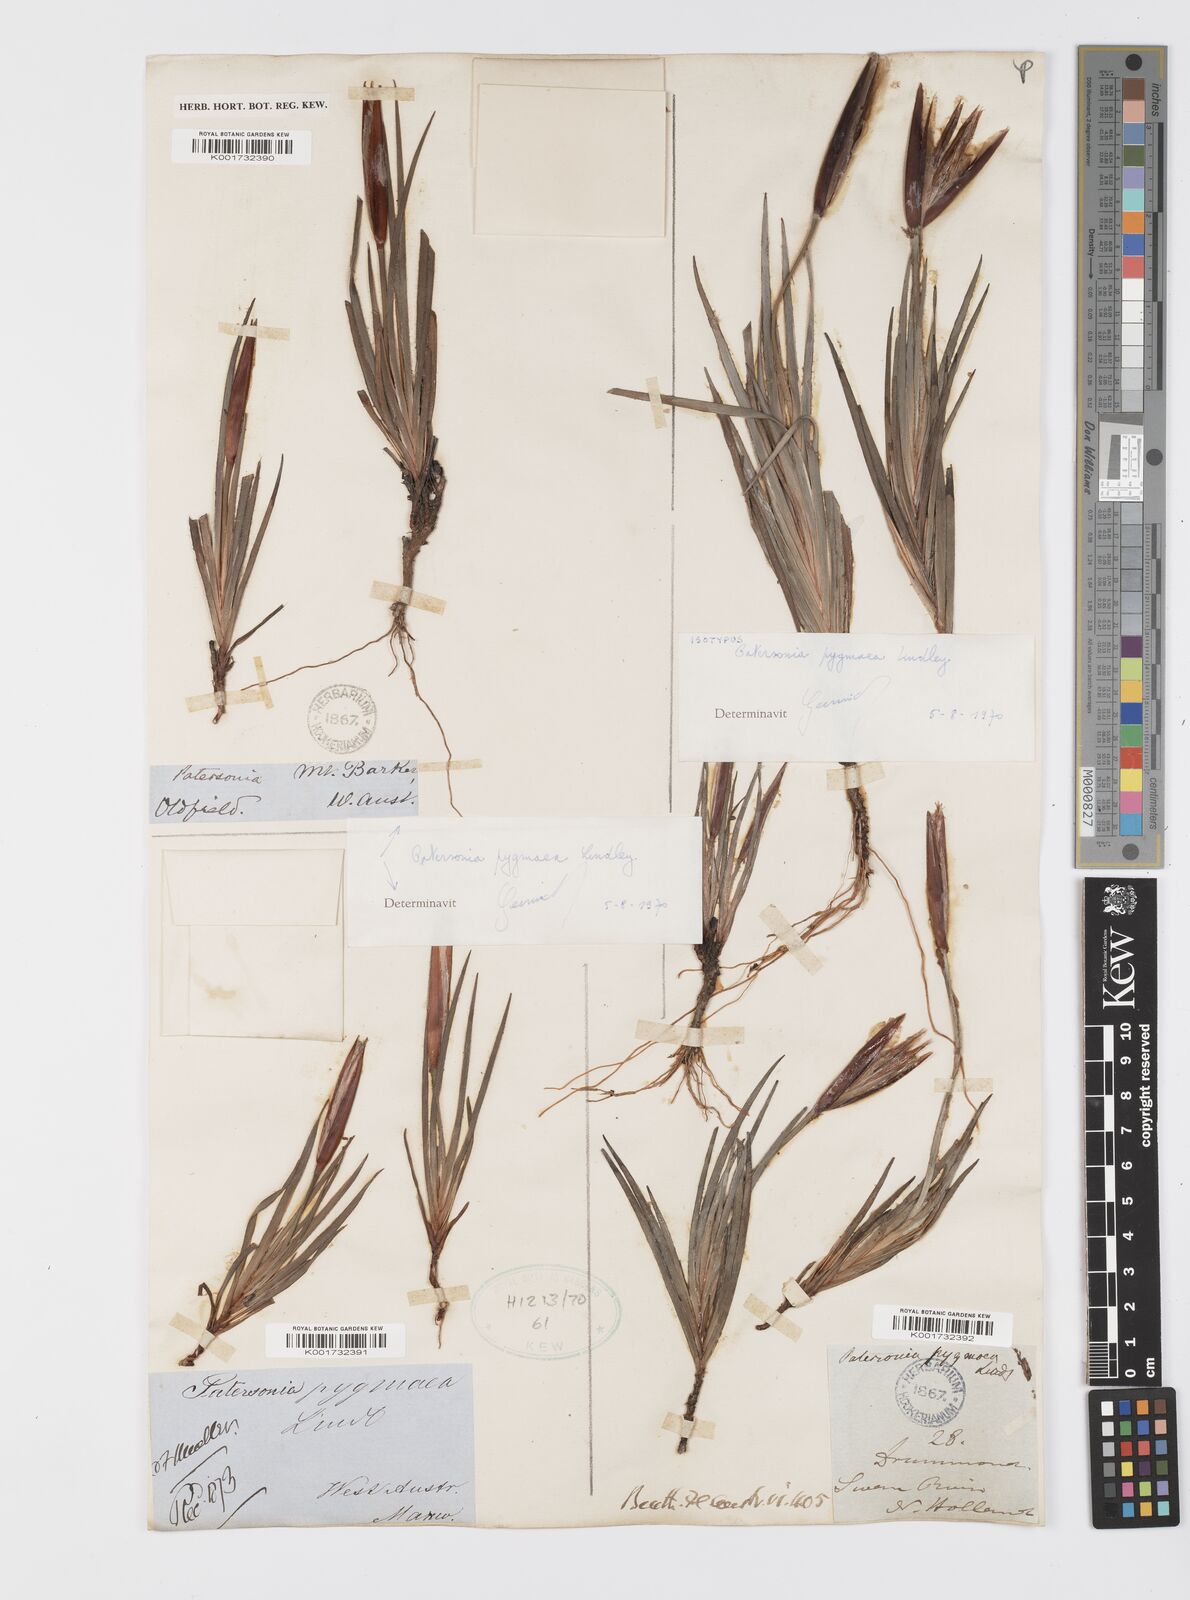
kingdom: Plantae
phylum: Tracheophyta
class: Liliopsida
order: Asparagales
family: Iridaceae
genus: Patersonia
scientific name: Patersonia pygmaea
